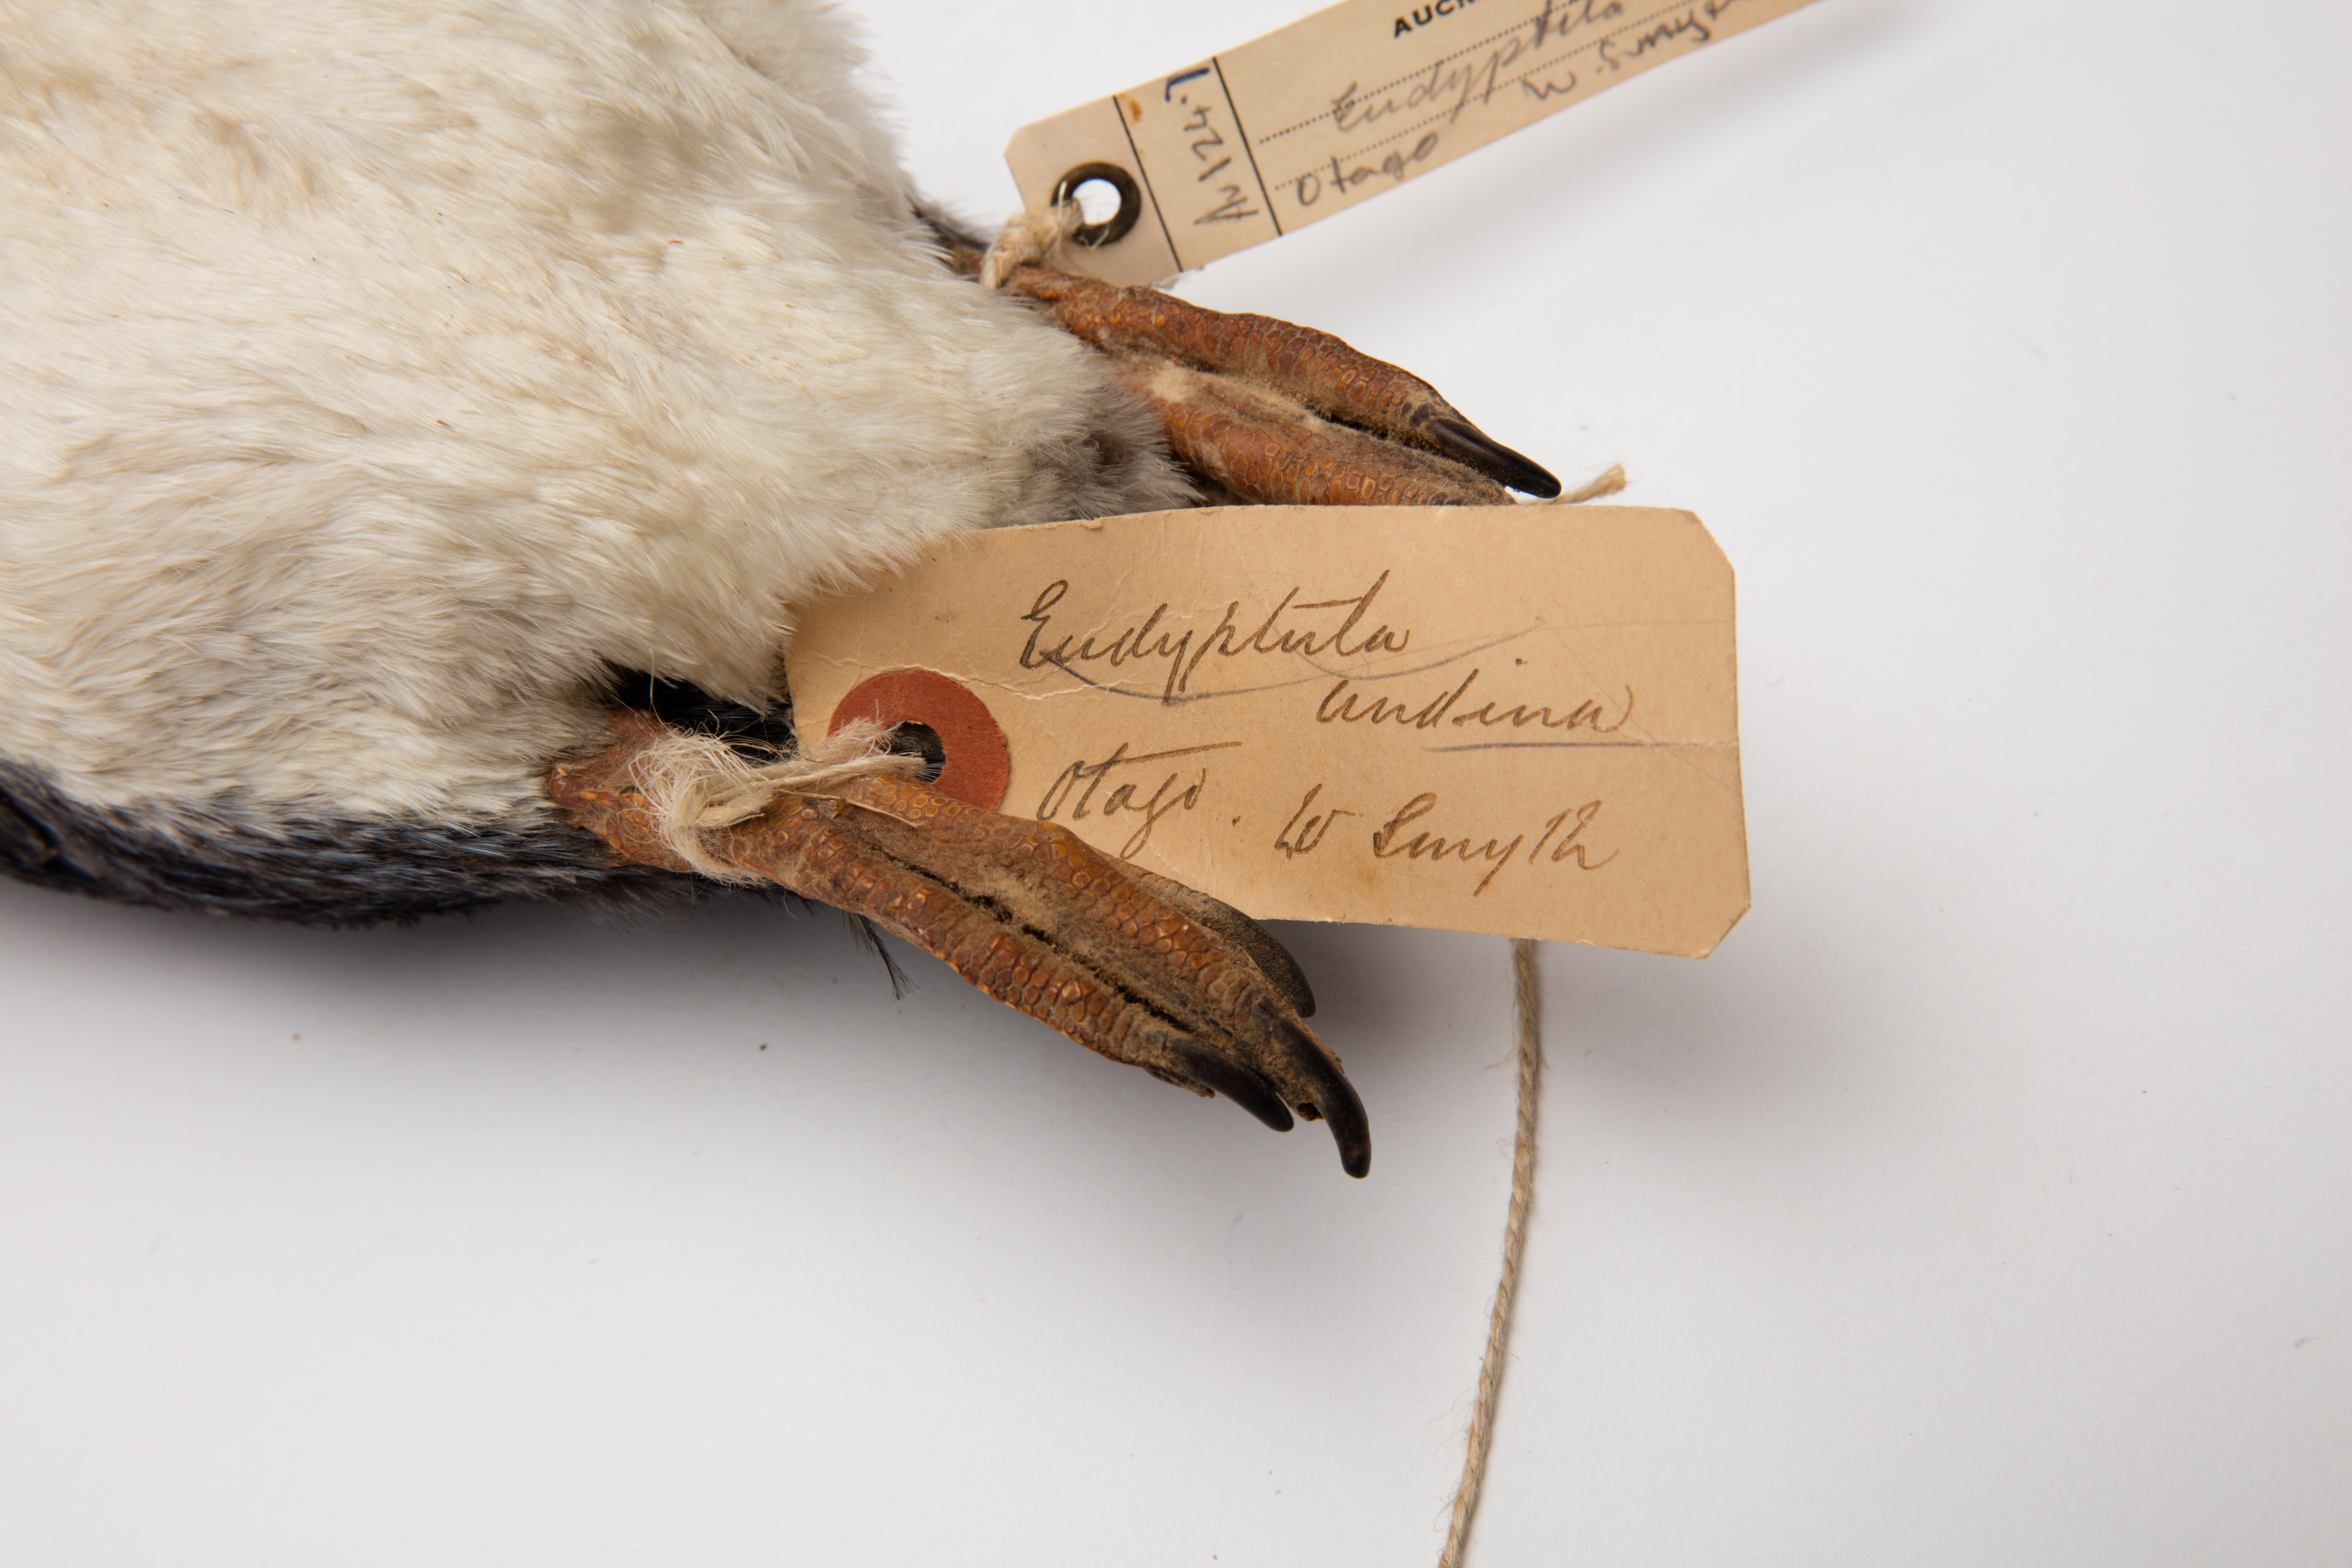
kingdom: Animalia
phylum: Chordata
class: Aves
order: Sphenisciformes
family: Spheniscidae
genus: Eudyptula
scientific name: Eudyptula minor
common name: Little penguin
